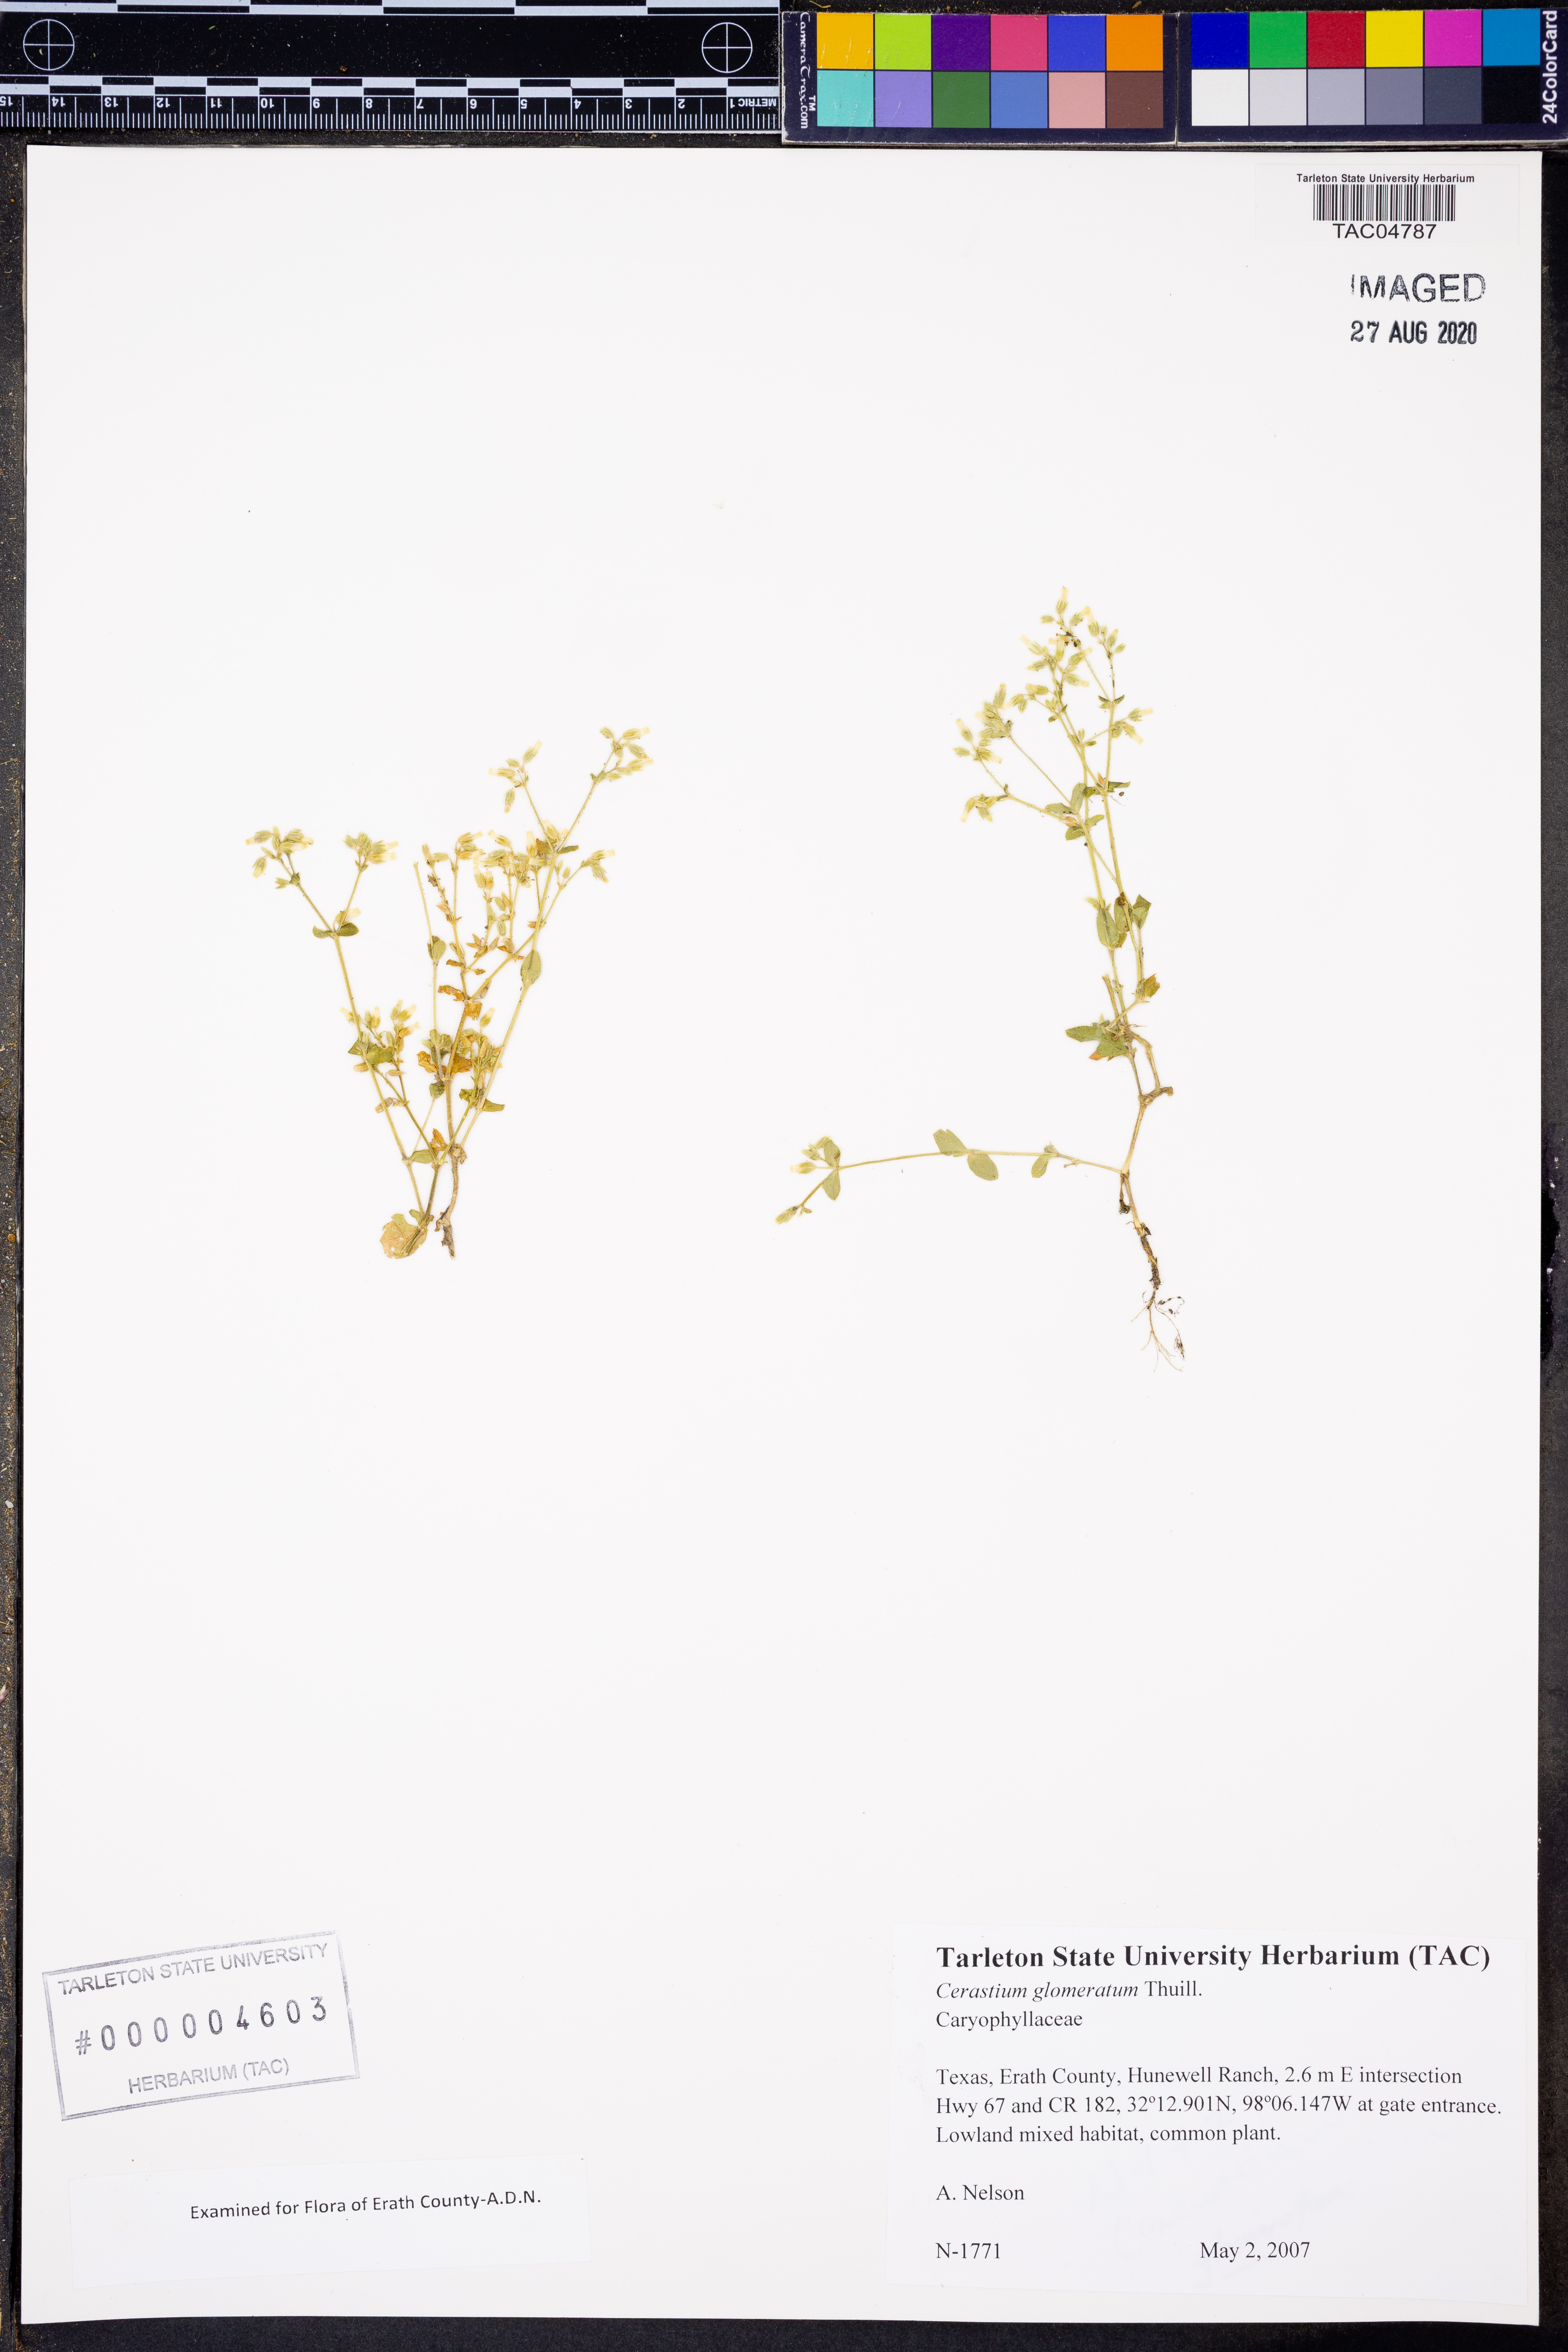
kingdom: Plantae
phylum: Tracheophyta
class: Magnoliopsida
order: Caryophyllales
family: Caryophyllaceae
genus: Cerastium
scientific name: Cerastium glomeratum
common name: Sticky chickweed
